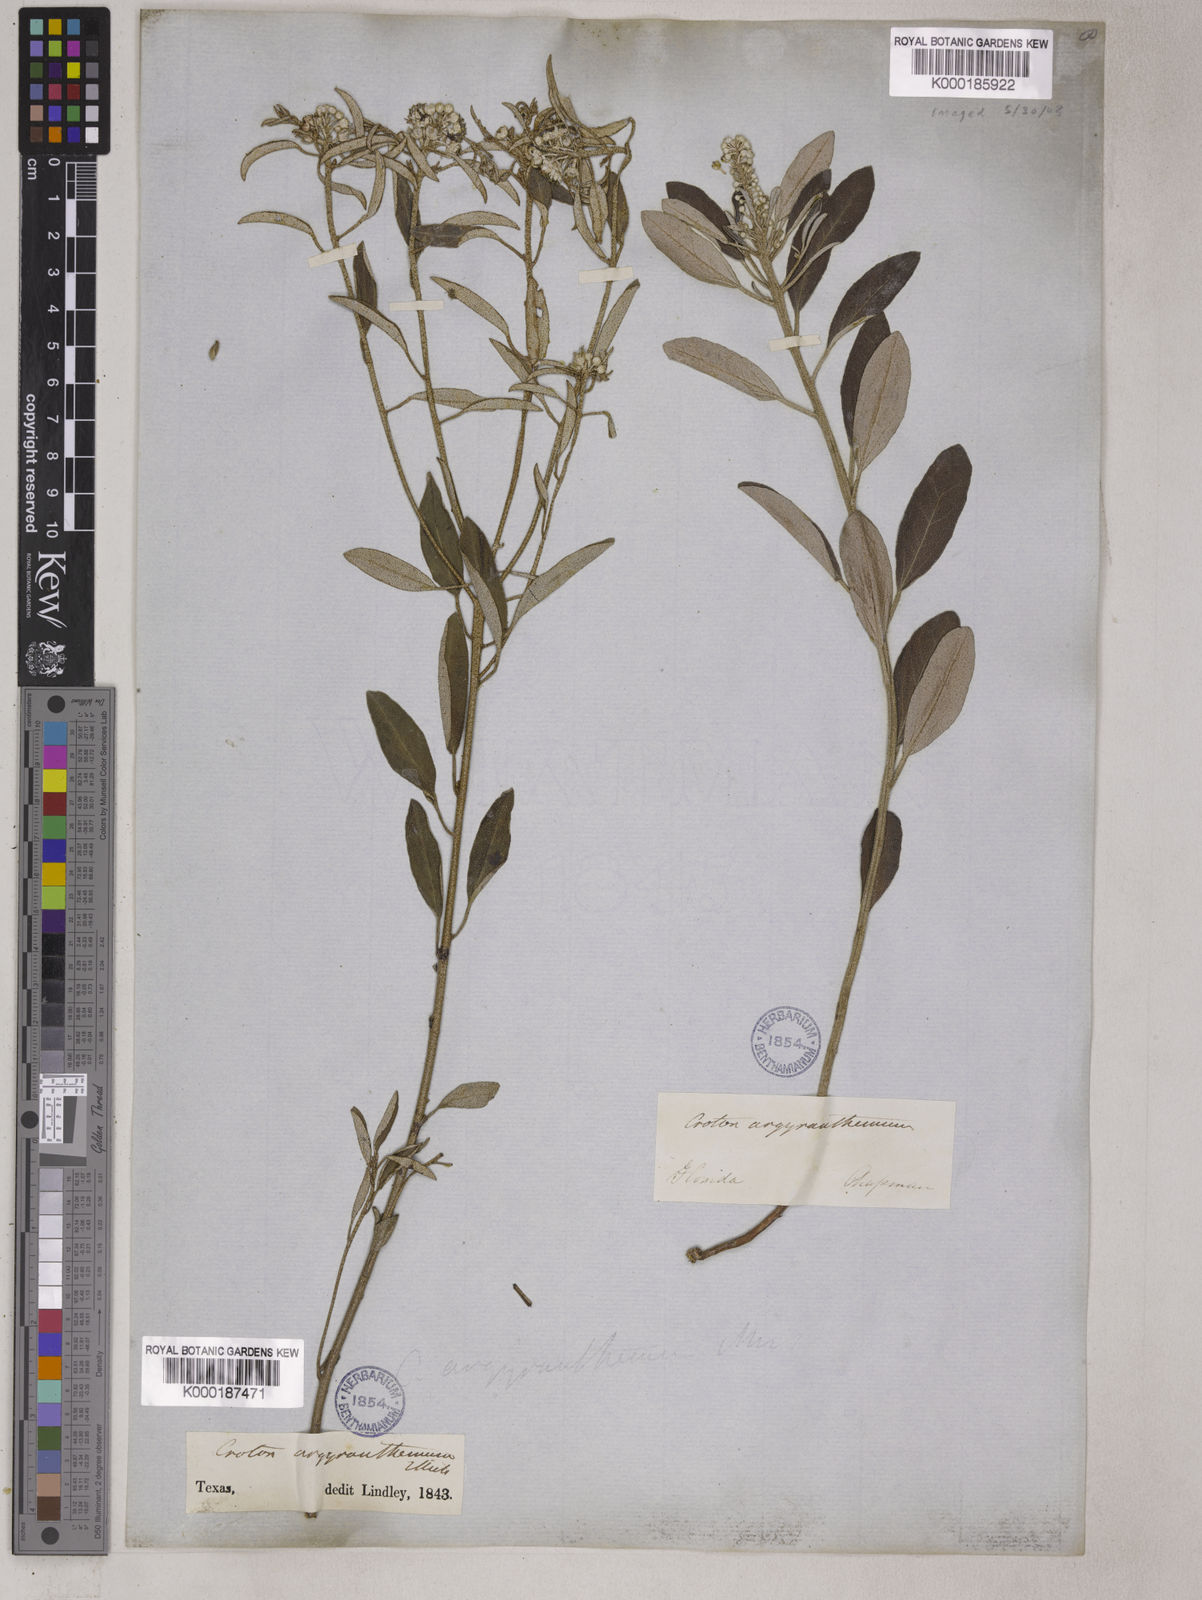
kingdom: Plantae
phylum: Tracheophyta
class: Magnoliopsida
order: Malpighiales
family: Euphorbiaceae
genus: Croton
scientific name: Croton argyranthemus
